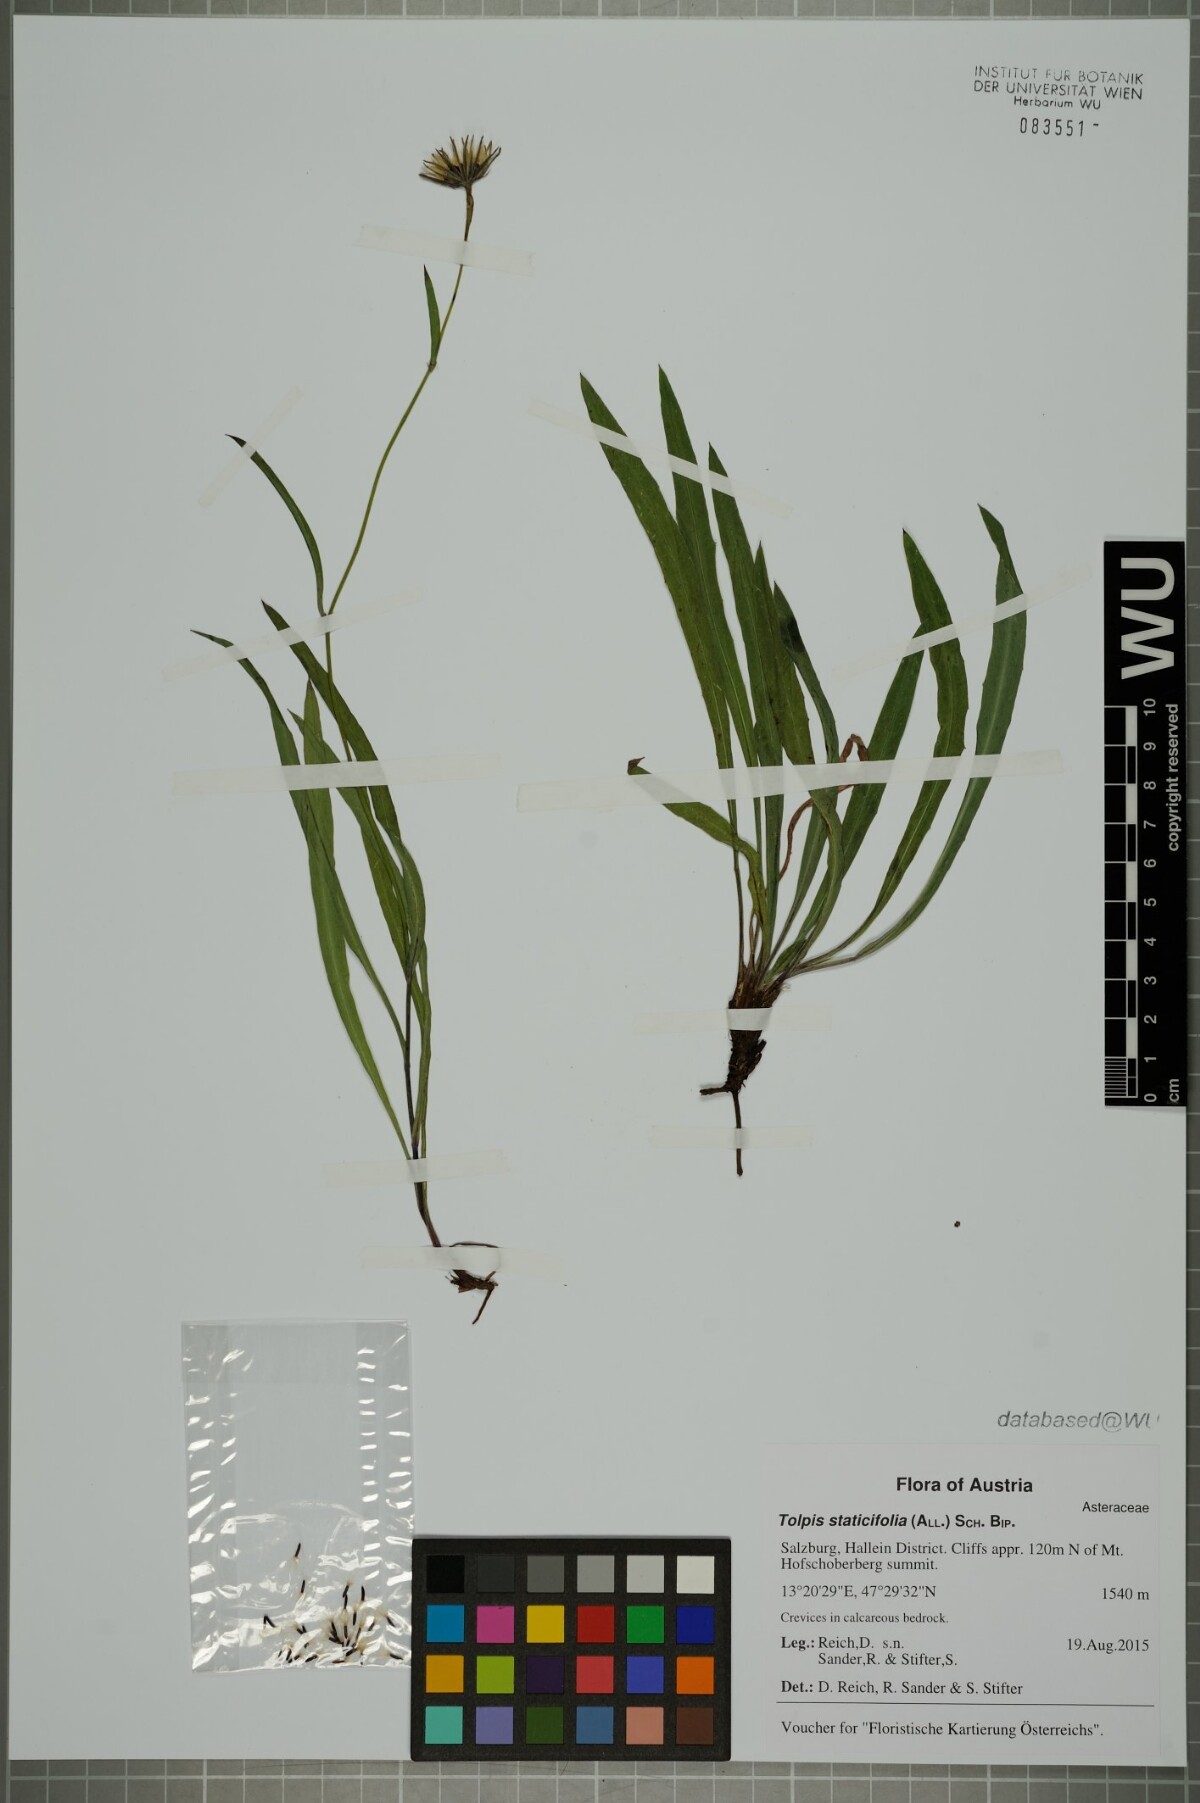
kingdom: Plantae
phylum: Tracheophyta
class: Magnoliopsida
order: Asterales
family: Asteraceae
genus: Tolpis
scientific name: Tolpis staticifolia
